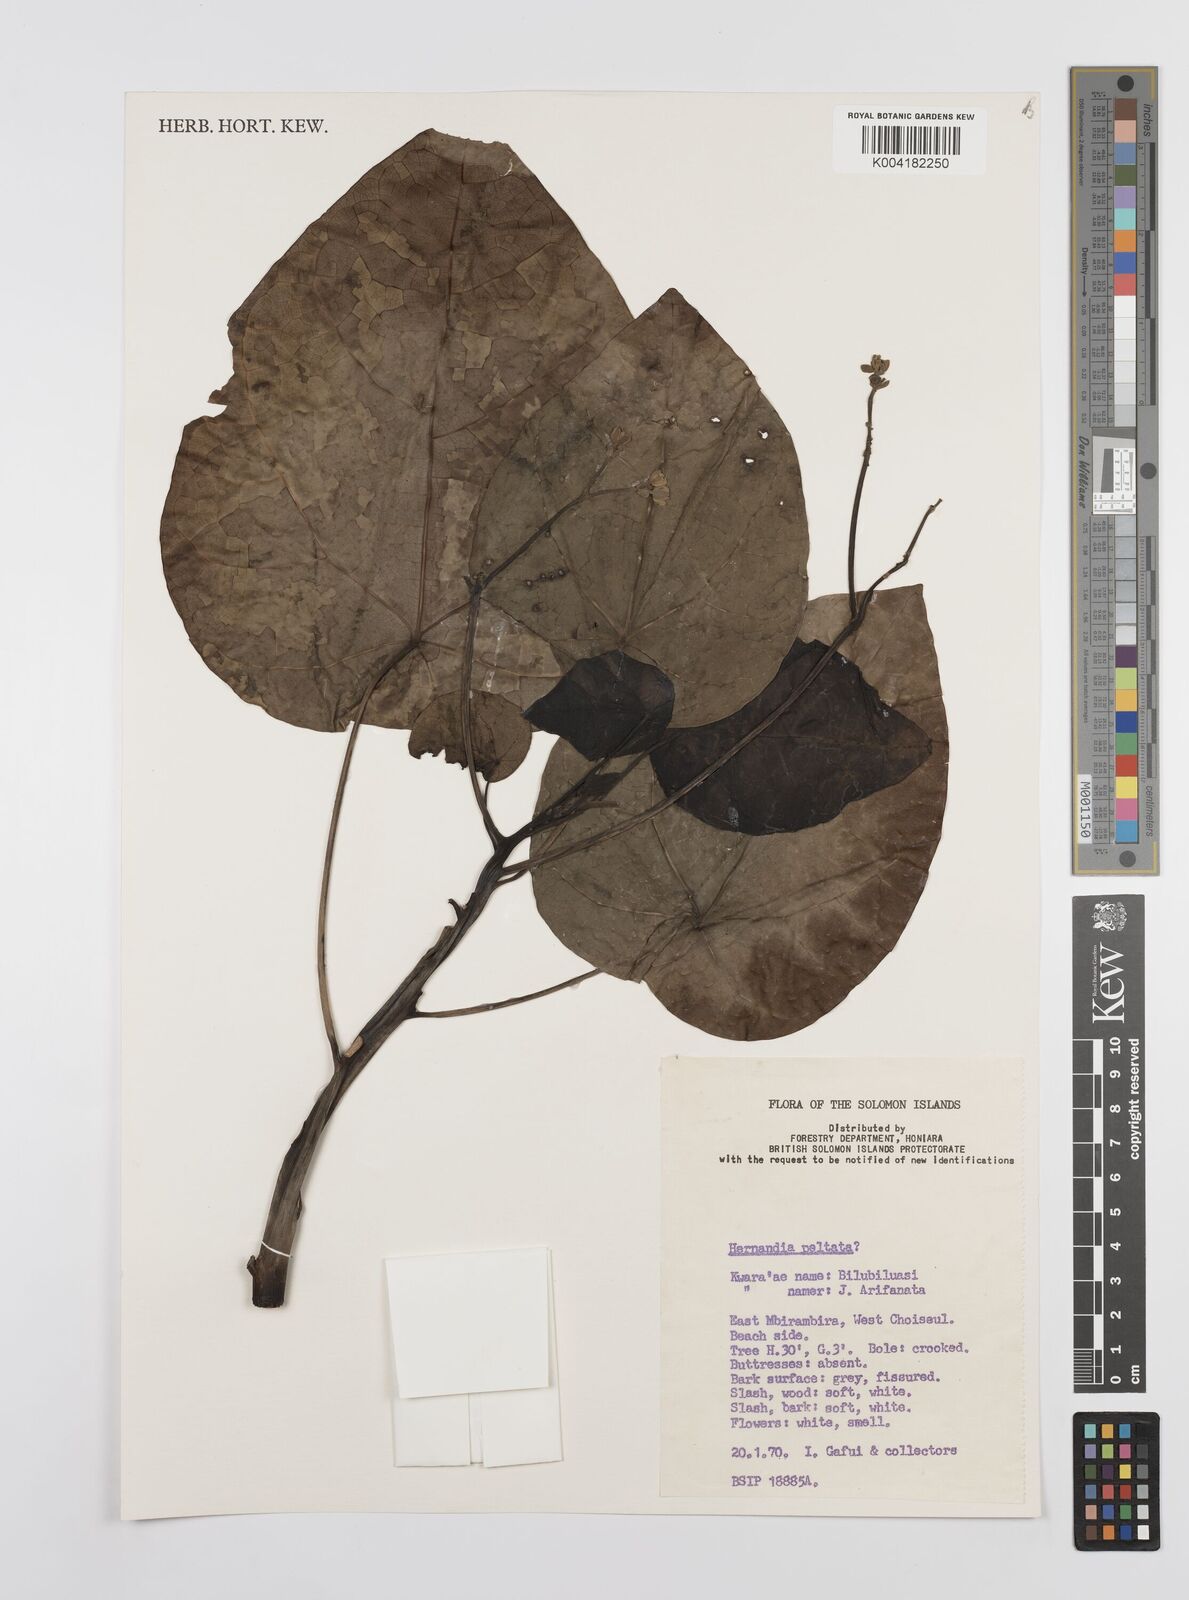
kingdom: Plantae
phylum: Tracheophyta
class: Magnoliopsida
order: Laurales
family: Hernandiaceae
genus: Hernandia
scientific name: Hernandia nymphaeifolia
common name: Sea hearse
